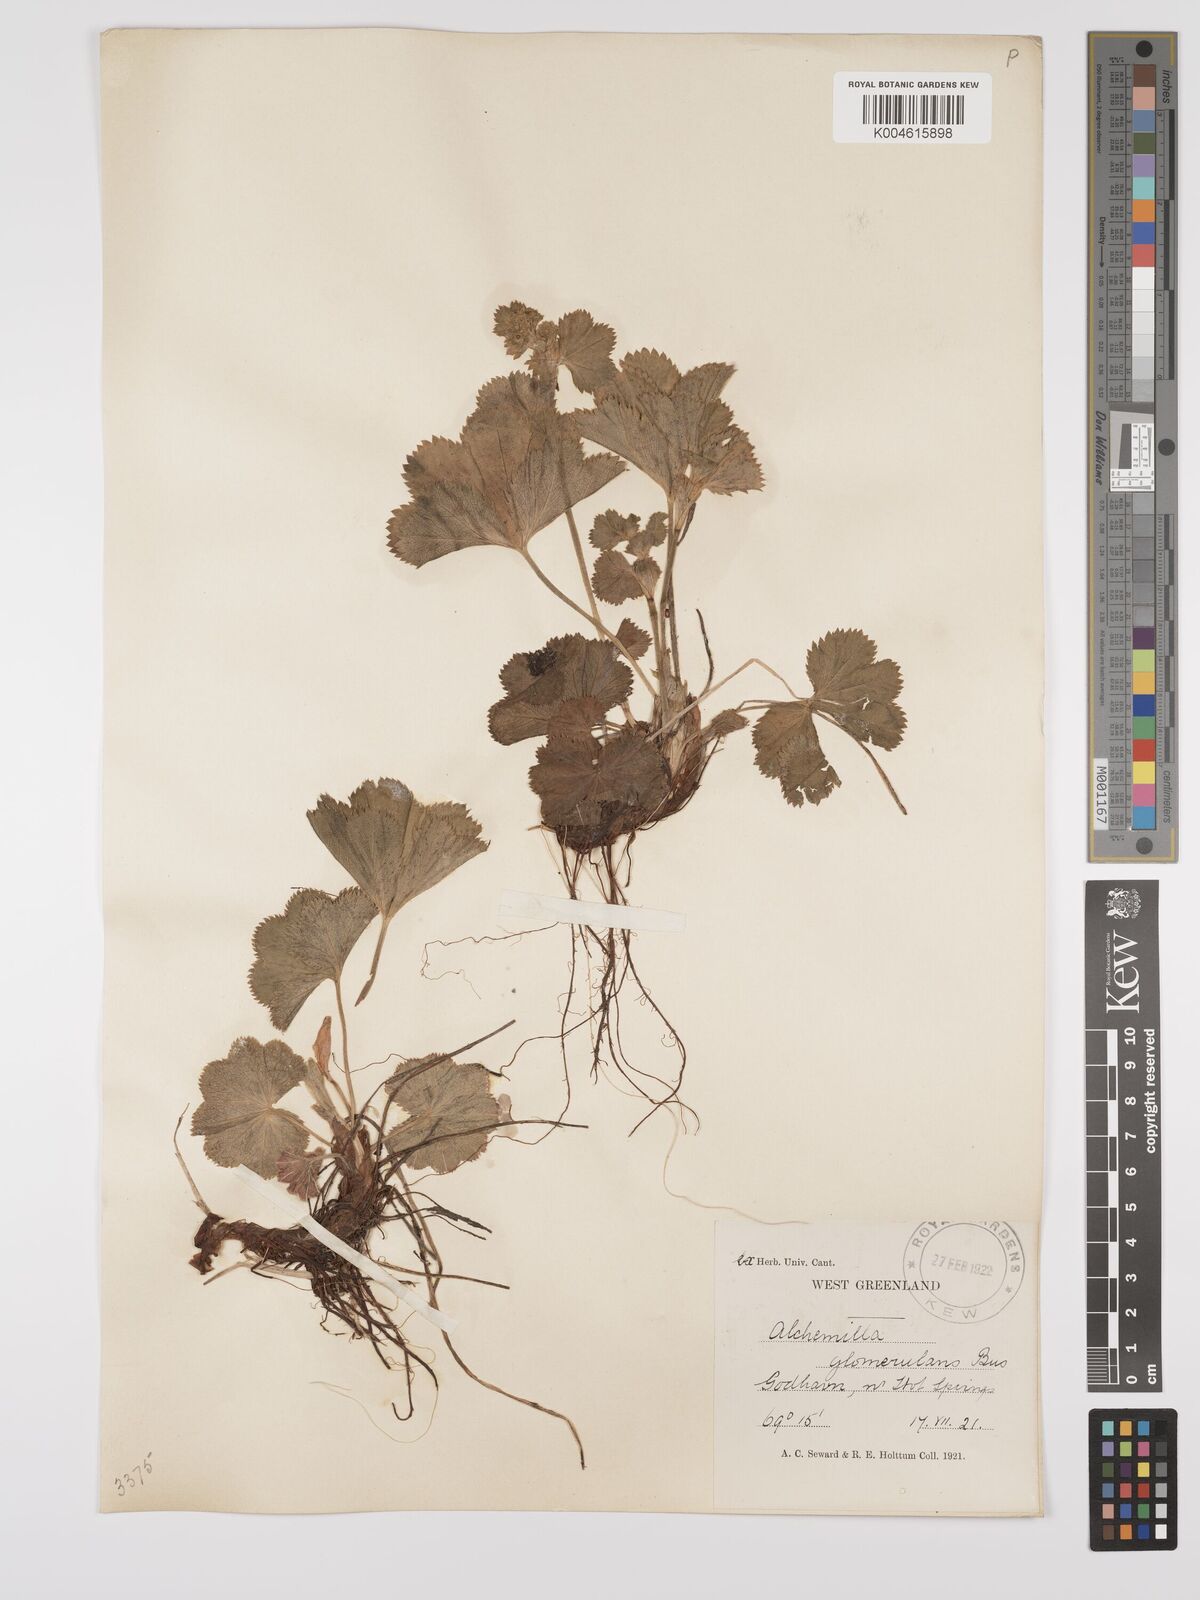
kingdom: Plantae
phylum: Tracheophyta
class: Magnoliopsida
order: Rosales
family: Rosaceae
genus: Alchemilla
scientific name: Alchemilla glomerulans
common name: Clustered lady's mantle
